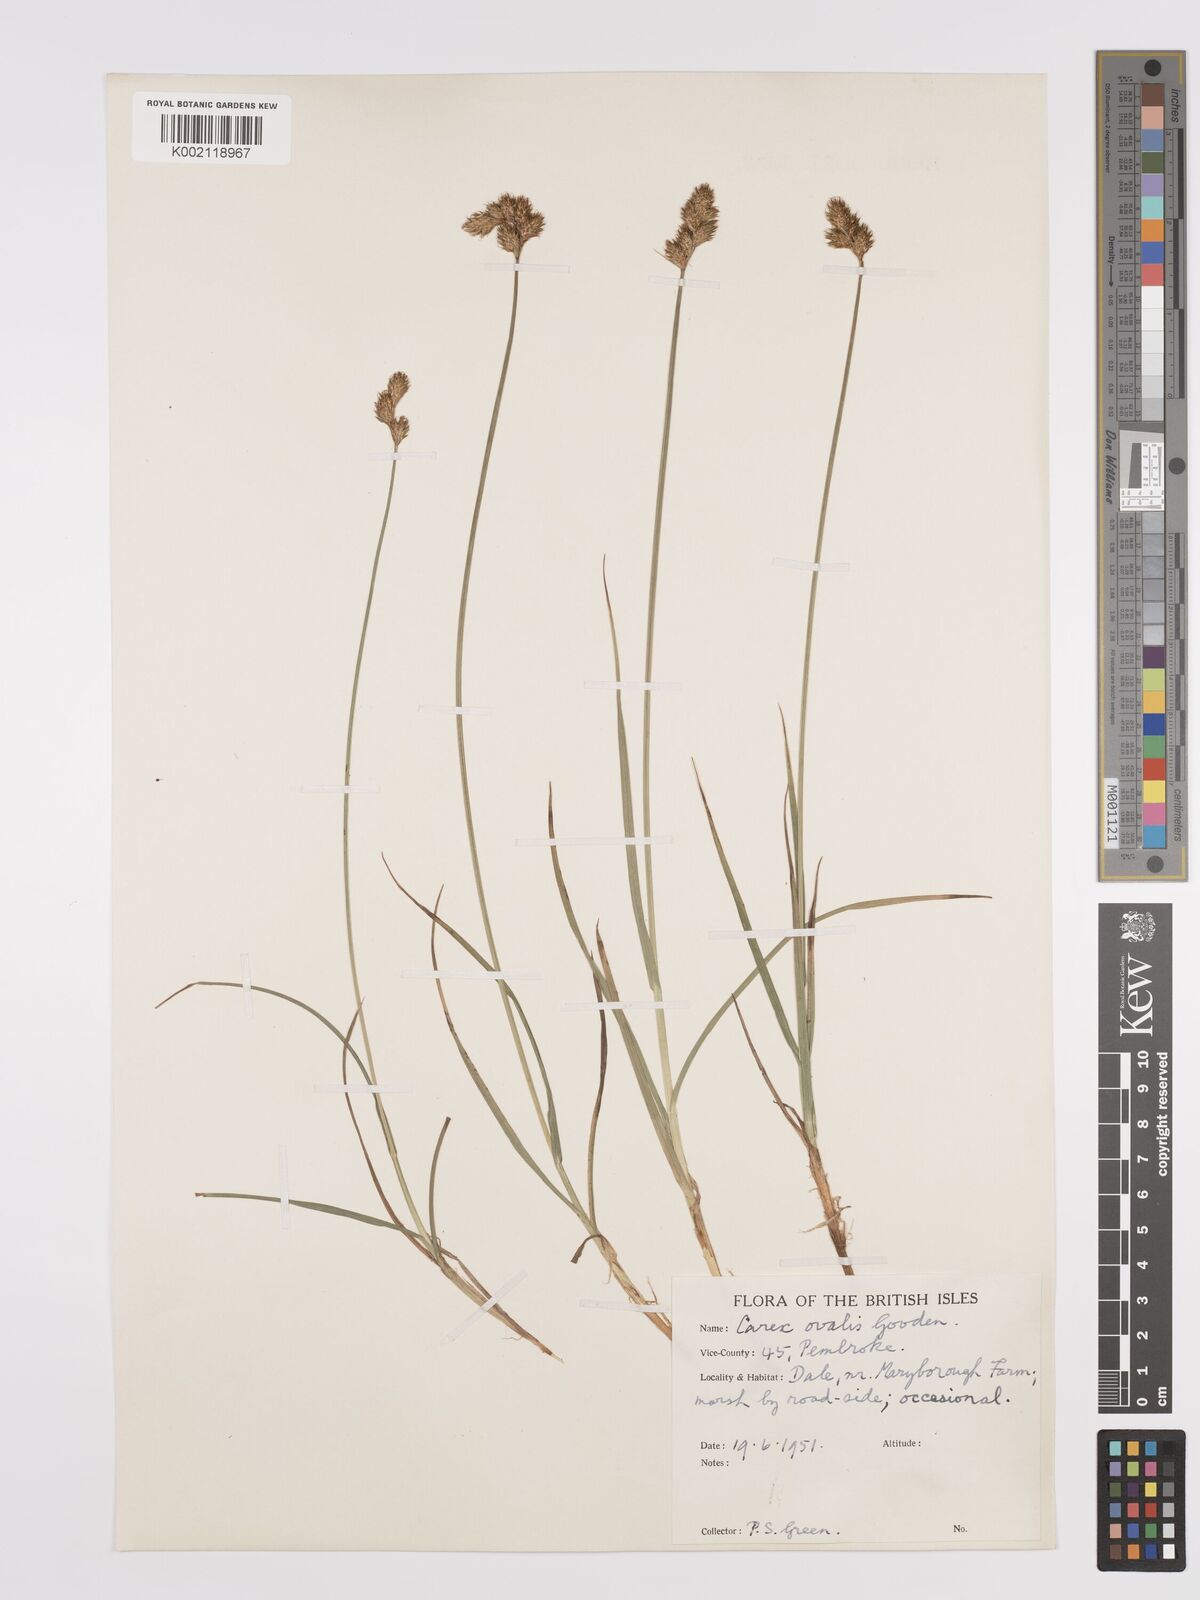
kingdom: Plantae
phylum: Tracheophyta
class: Liliopsida
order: Poales
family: Cyperaceae
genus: Carex
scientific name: Carex leporina
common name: Oval sedge
